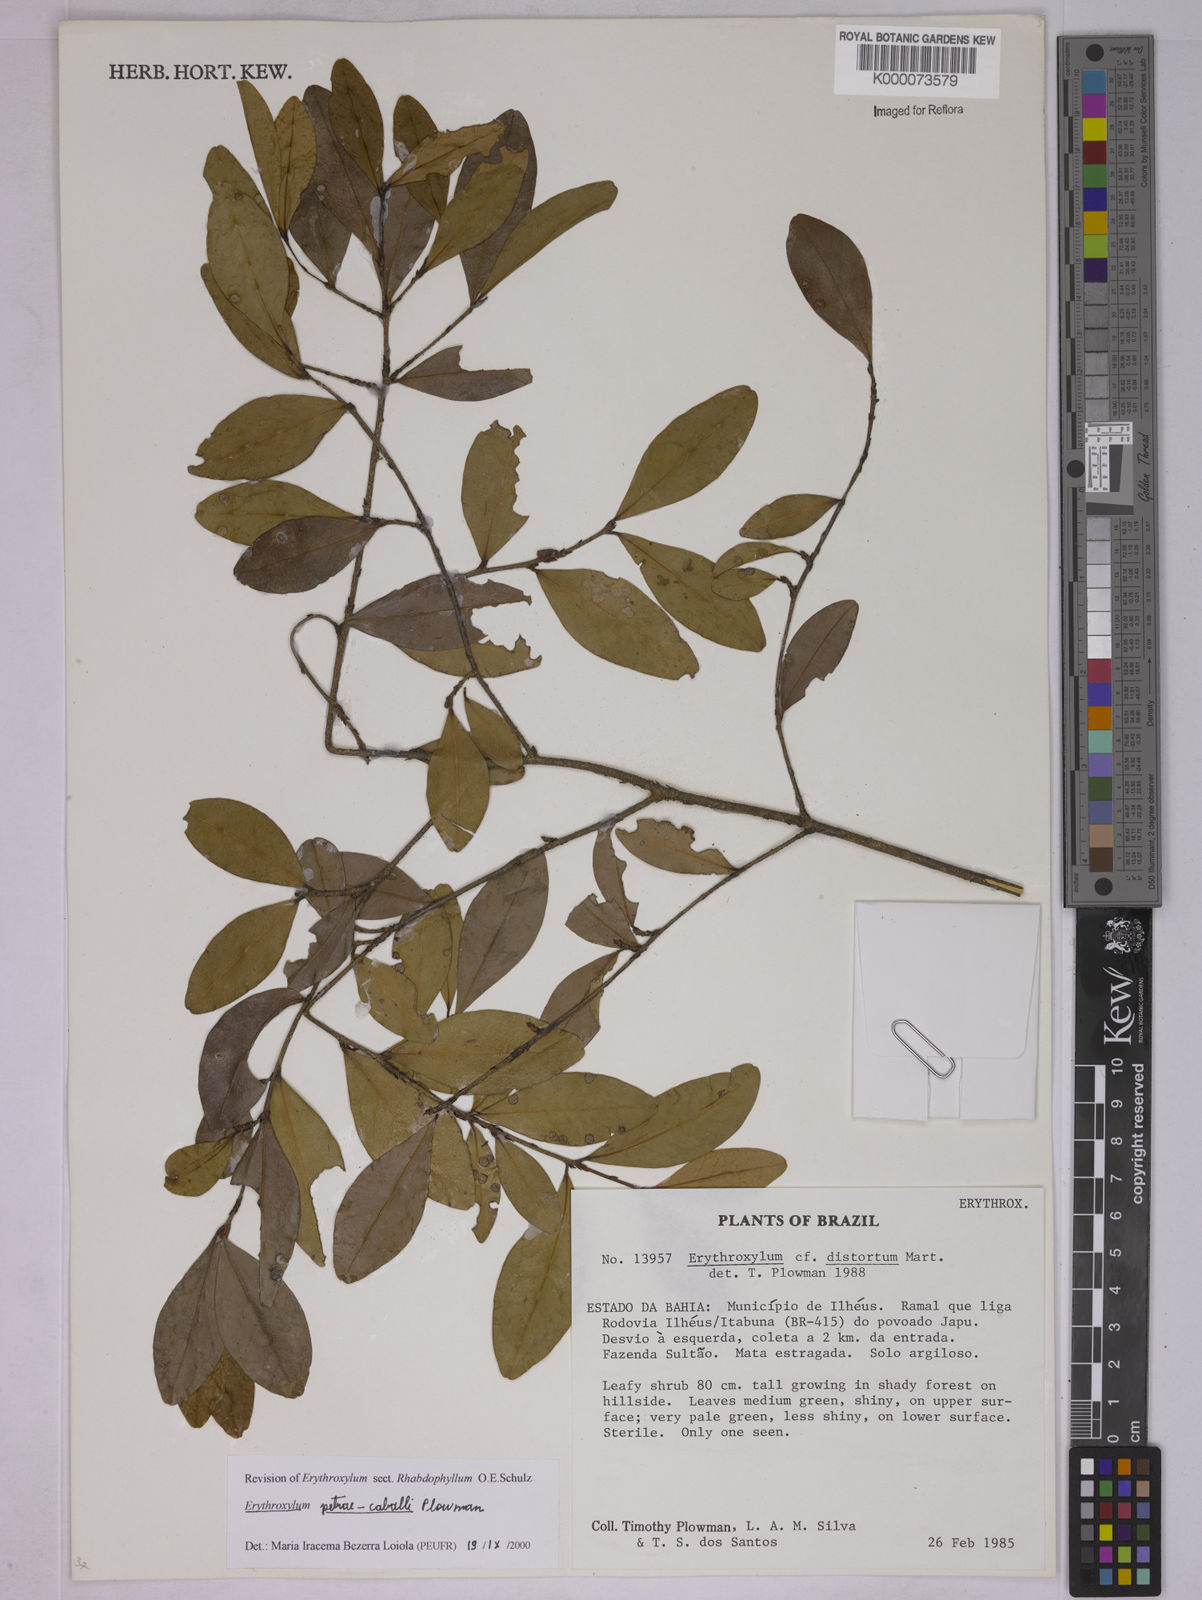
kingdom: Plantae
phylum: Tracheophyta
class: Magnoliopsida
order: Malpighiales
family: Erythroxylaceae
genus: Erythroxylum
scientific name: Erythroxylum petrae-caballi
